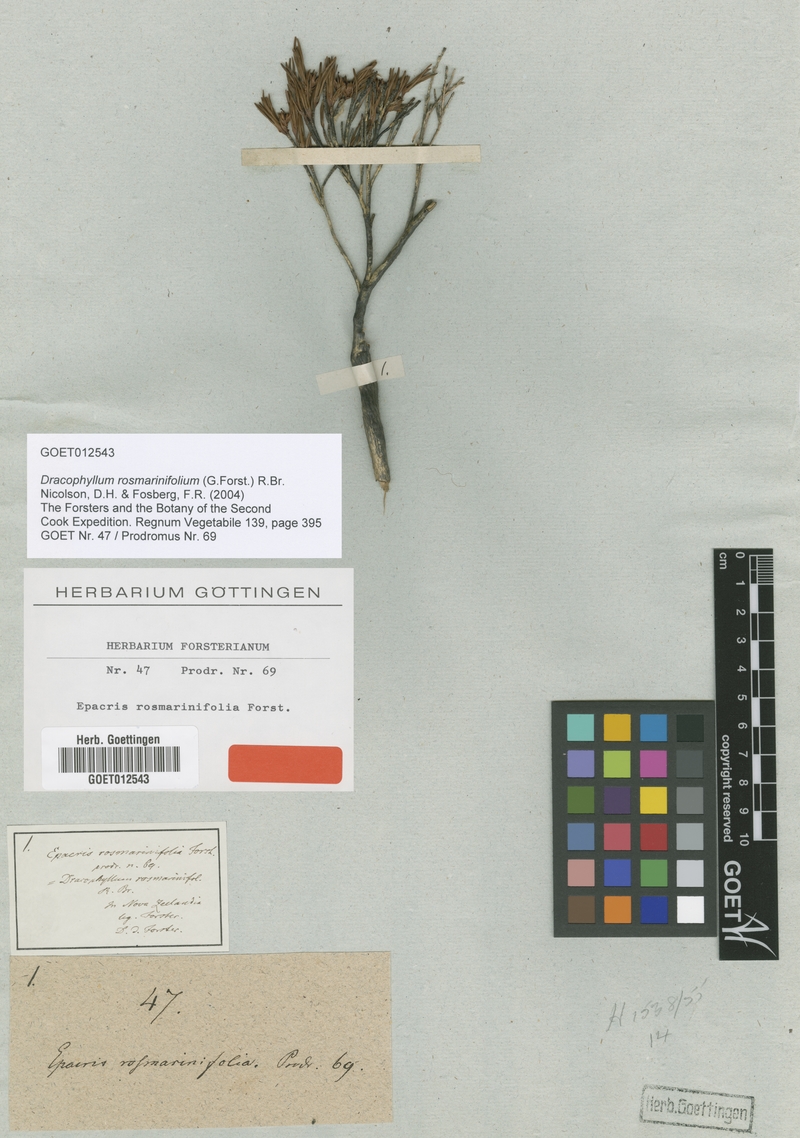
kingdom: Plantae
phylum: Tracheophyta
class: Magnoliopsida
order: Ericales
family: Ericaceae
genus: Dracophyllum
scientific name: Dracophyllum rosmarinifolium
